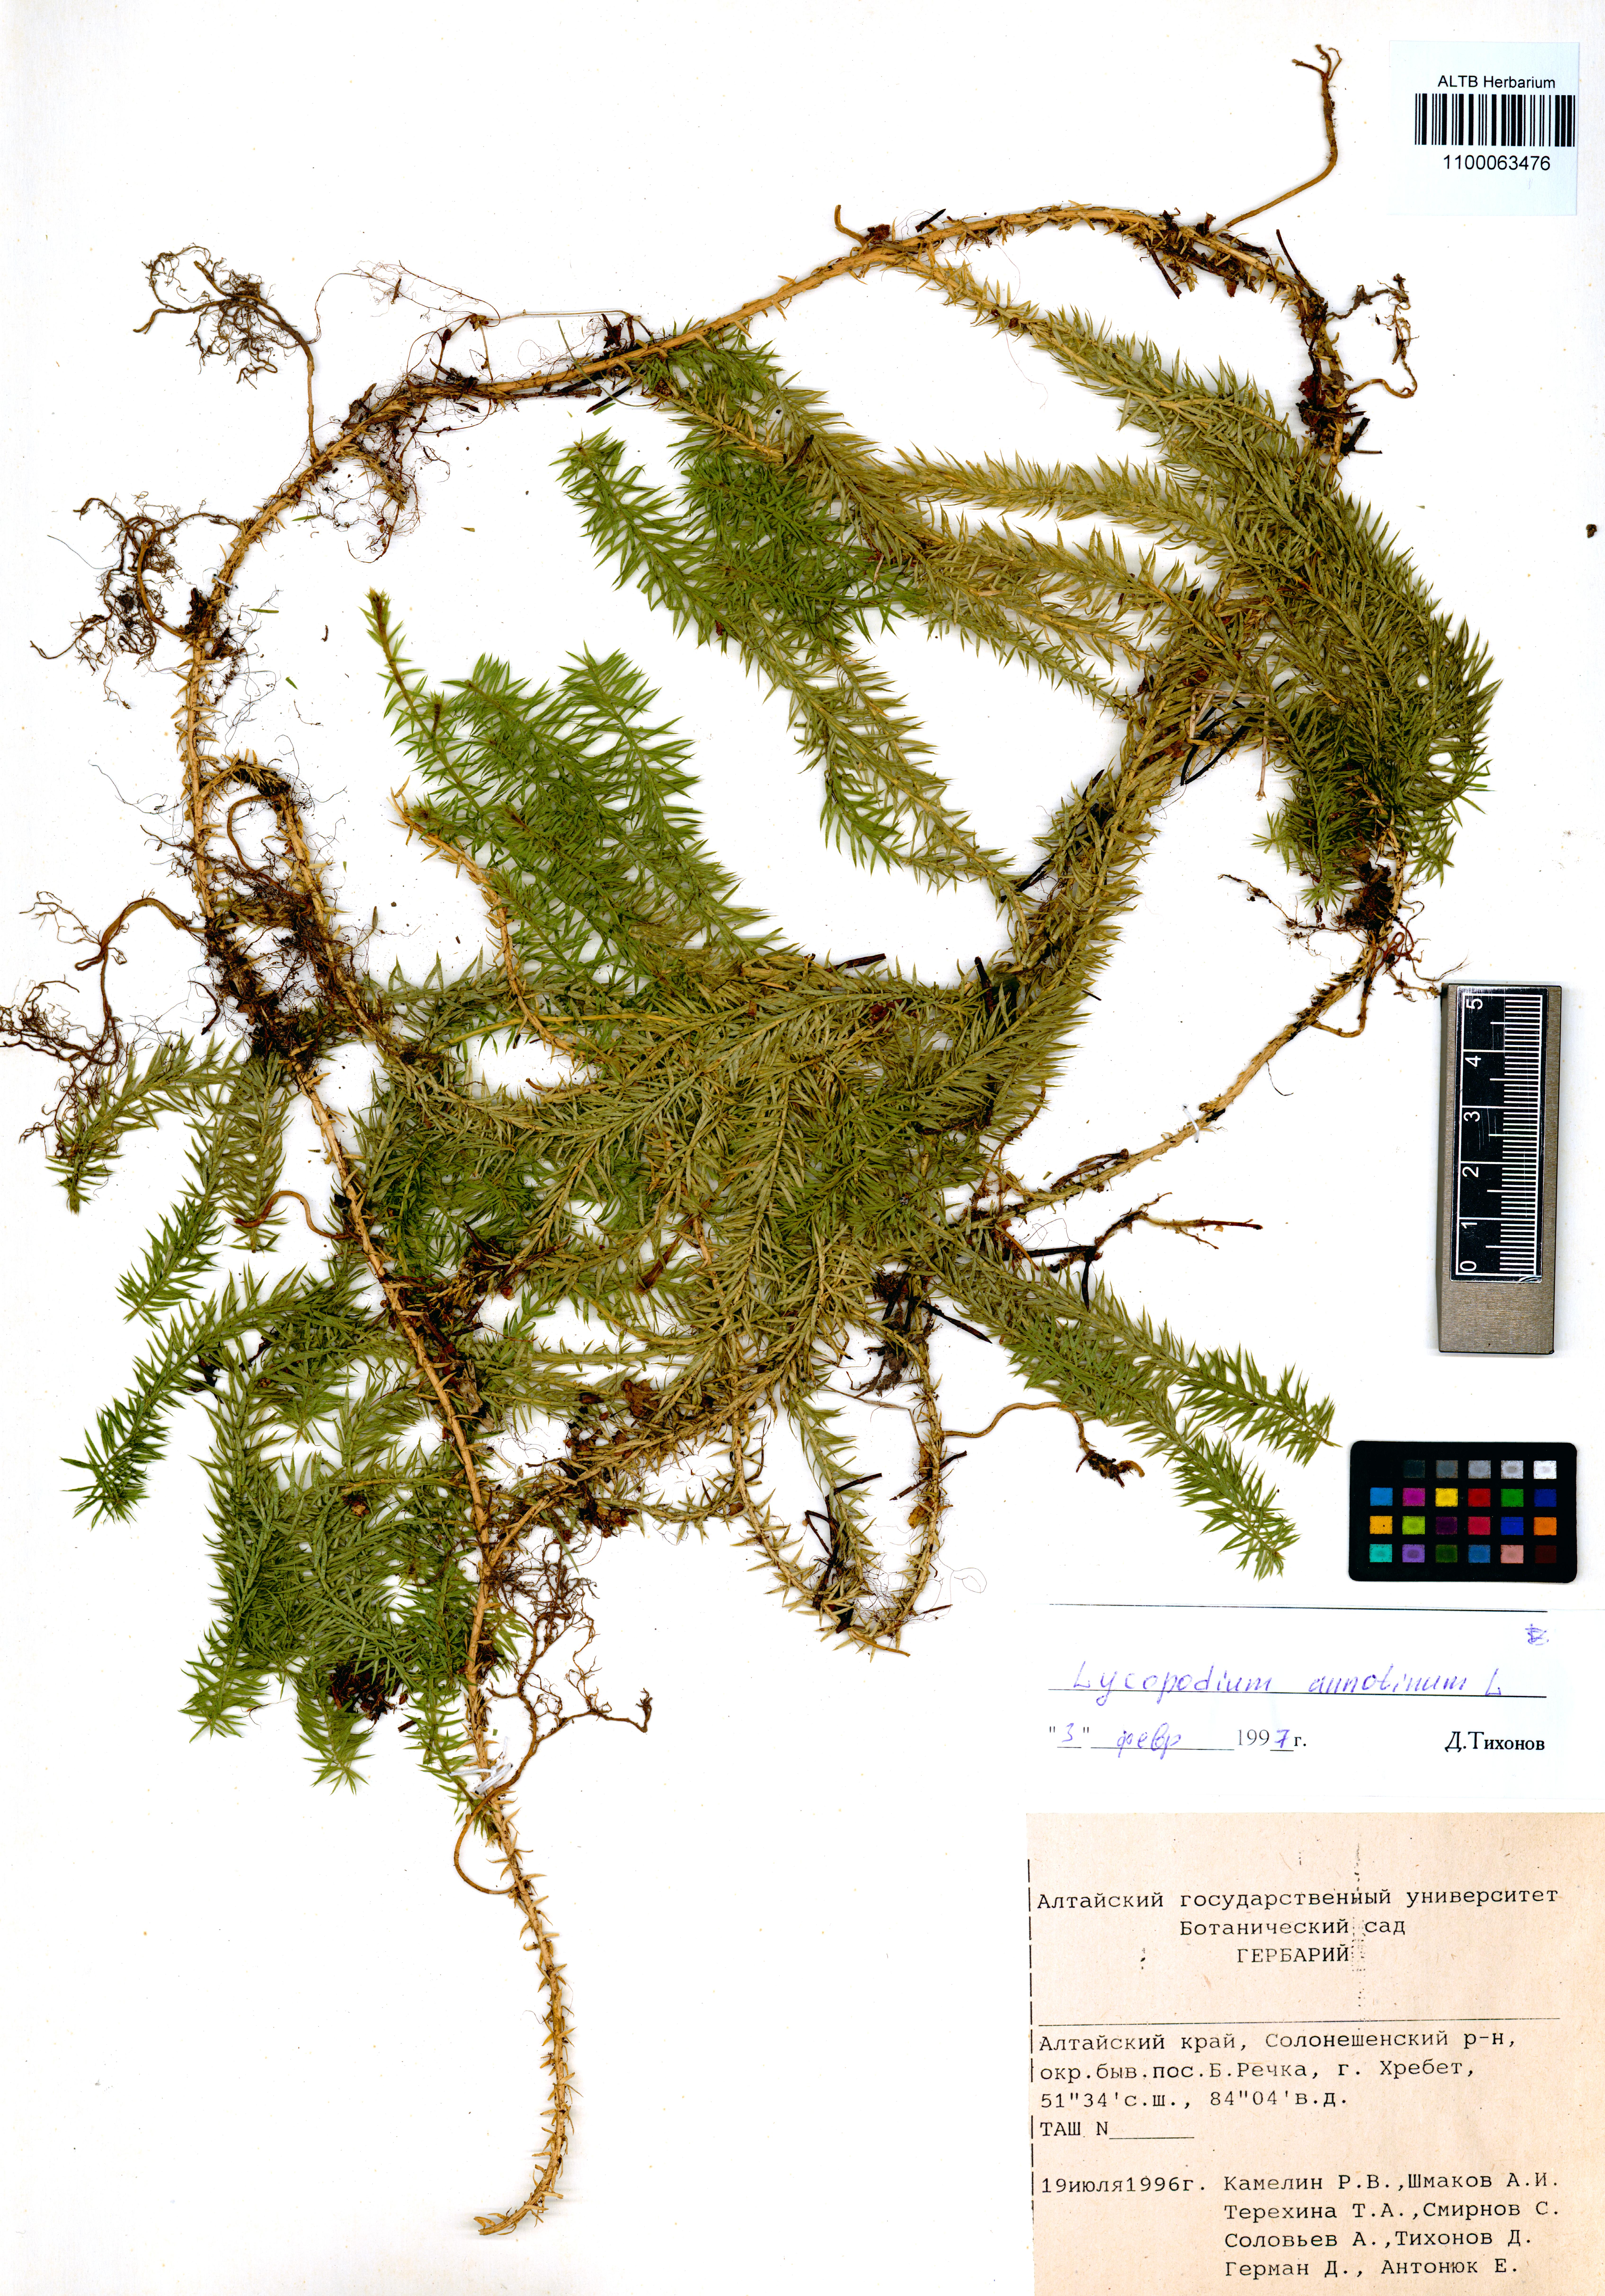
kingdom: Plantae
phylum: Tracheophyta
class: Lycopodiopsida
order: Lycopodiales
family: Lycopodiaceae
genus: Spinulum
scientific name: Spinulum annotinum
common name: Interrupted club-moss
